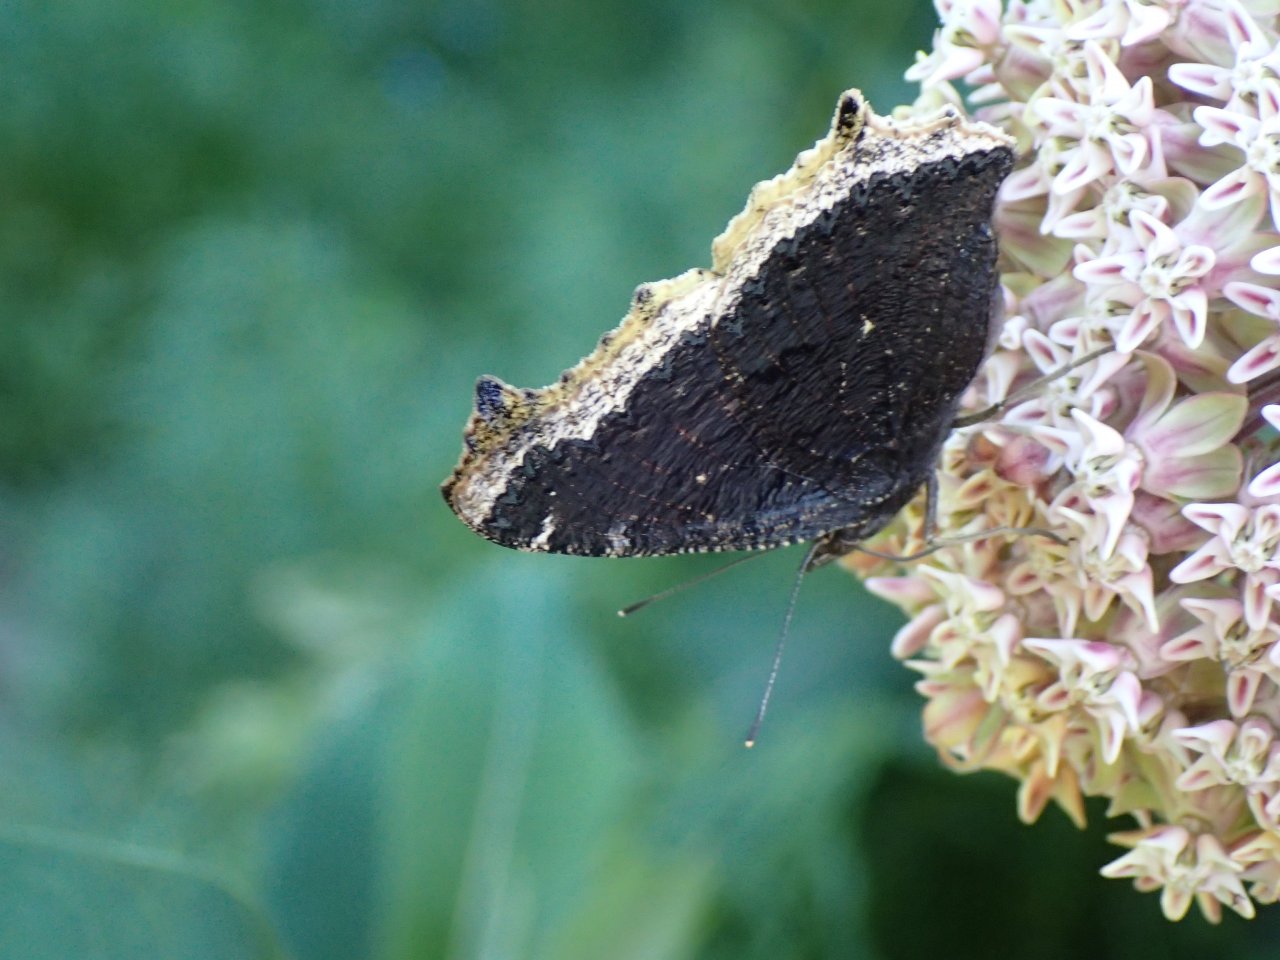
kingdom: Animalia
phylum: Arthropoda
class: Insecta
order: Lepidoptera
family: Nymphalidae
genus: Nymphalis
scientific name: Nymphalis antiopa
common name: Mourning Cloak
